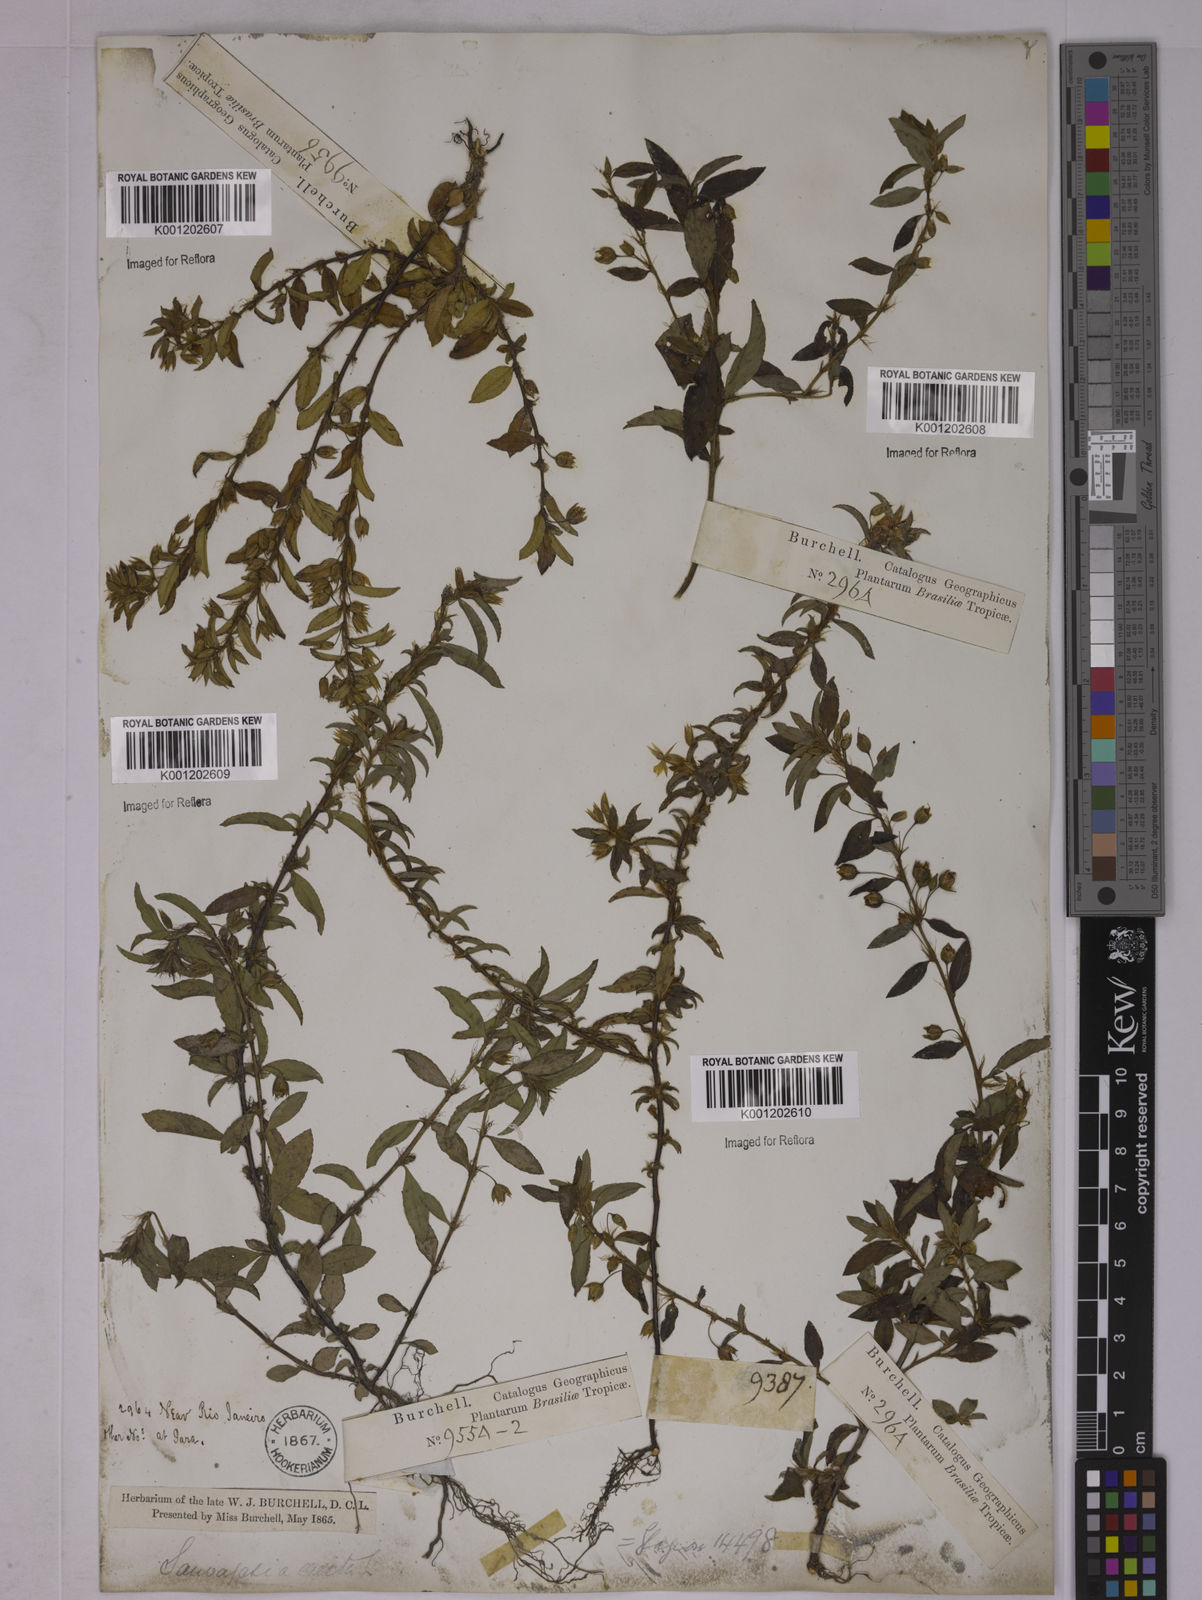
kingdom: Plantae
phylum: Tracheophyta
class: Magnoliopsida
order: Malpighiales
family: Ochnaceae
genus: Sauvagesia
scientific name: Sauvagesia erecta
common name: Creole tea
